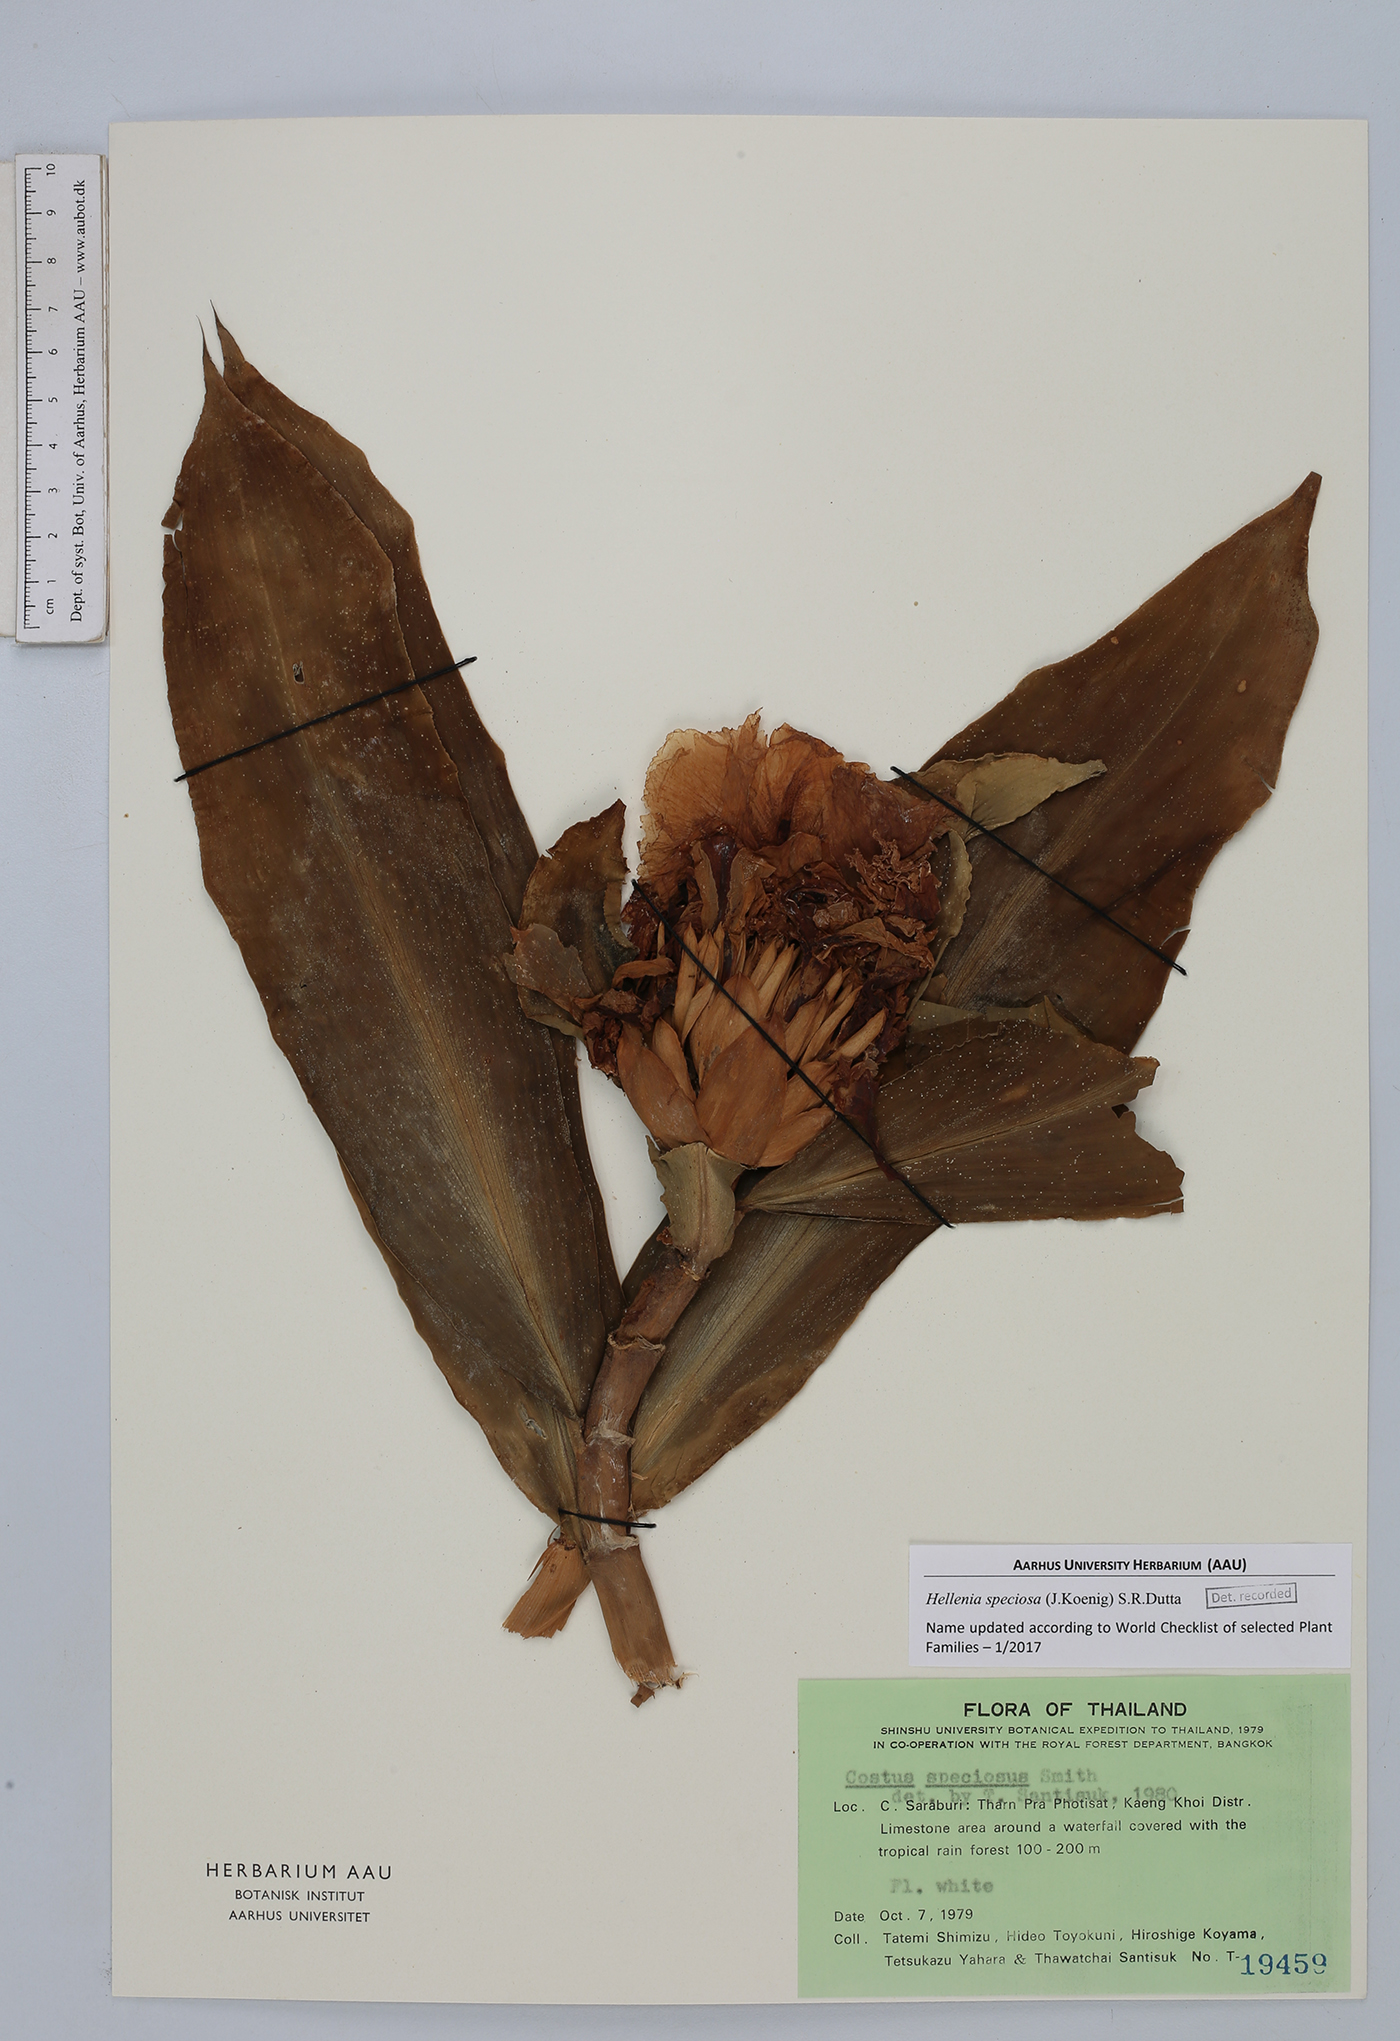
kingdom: Plantae
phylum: Tracheophyta
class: Liliopsida
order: Zingiberales
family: Costaceae
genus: Hellenia
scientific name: Hellenia speciosa
